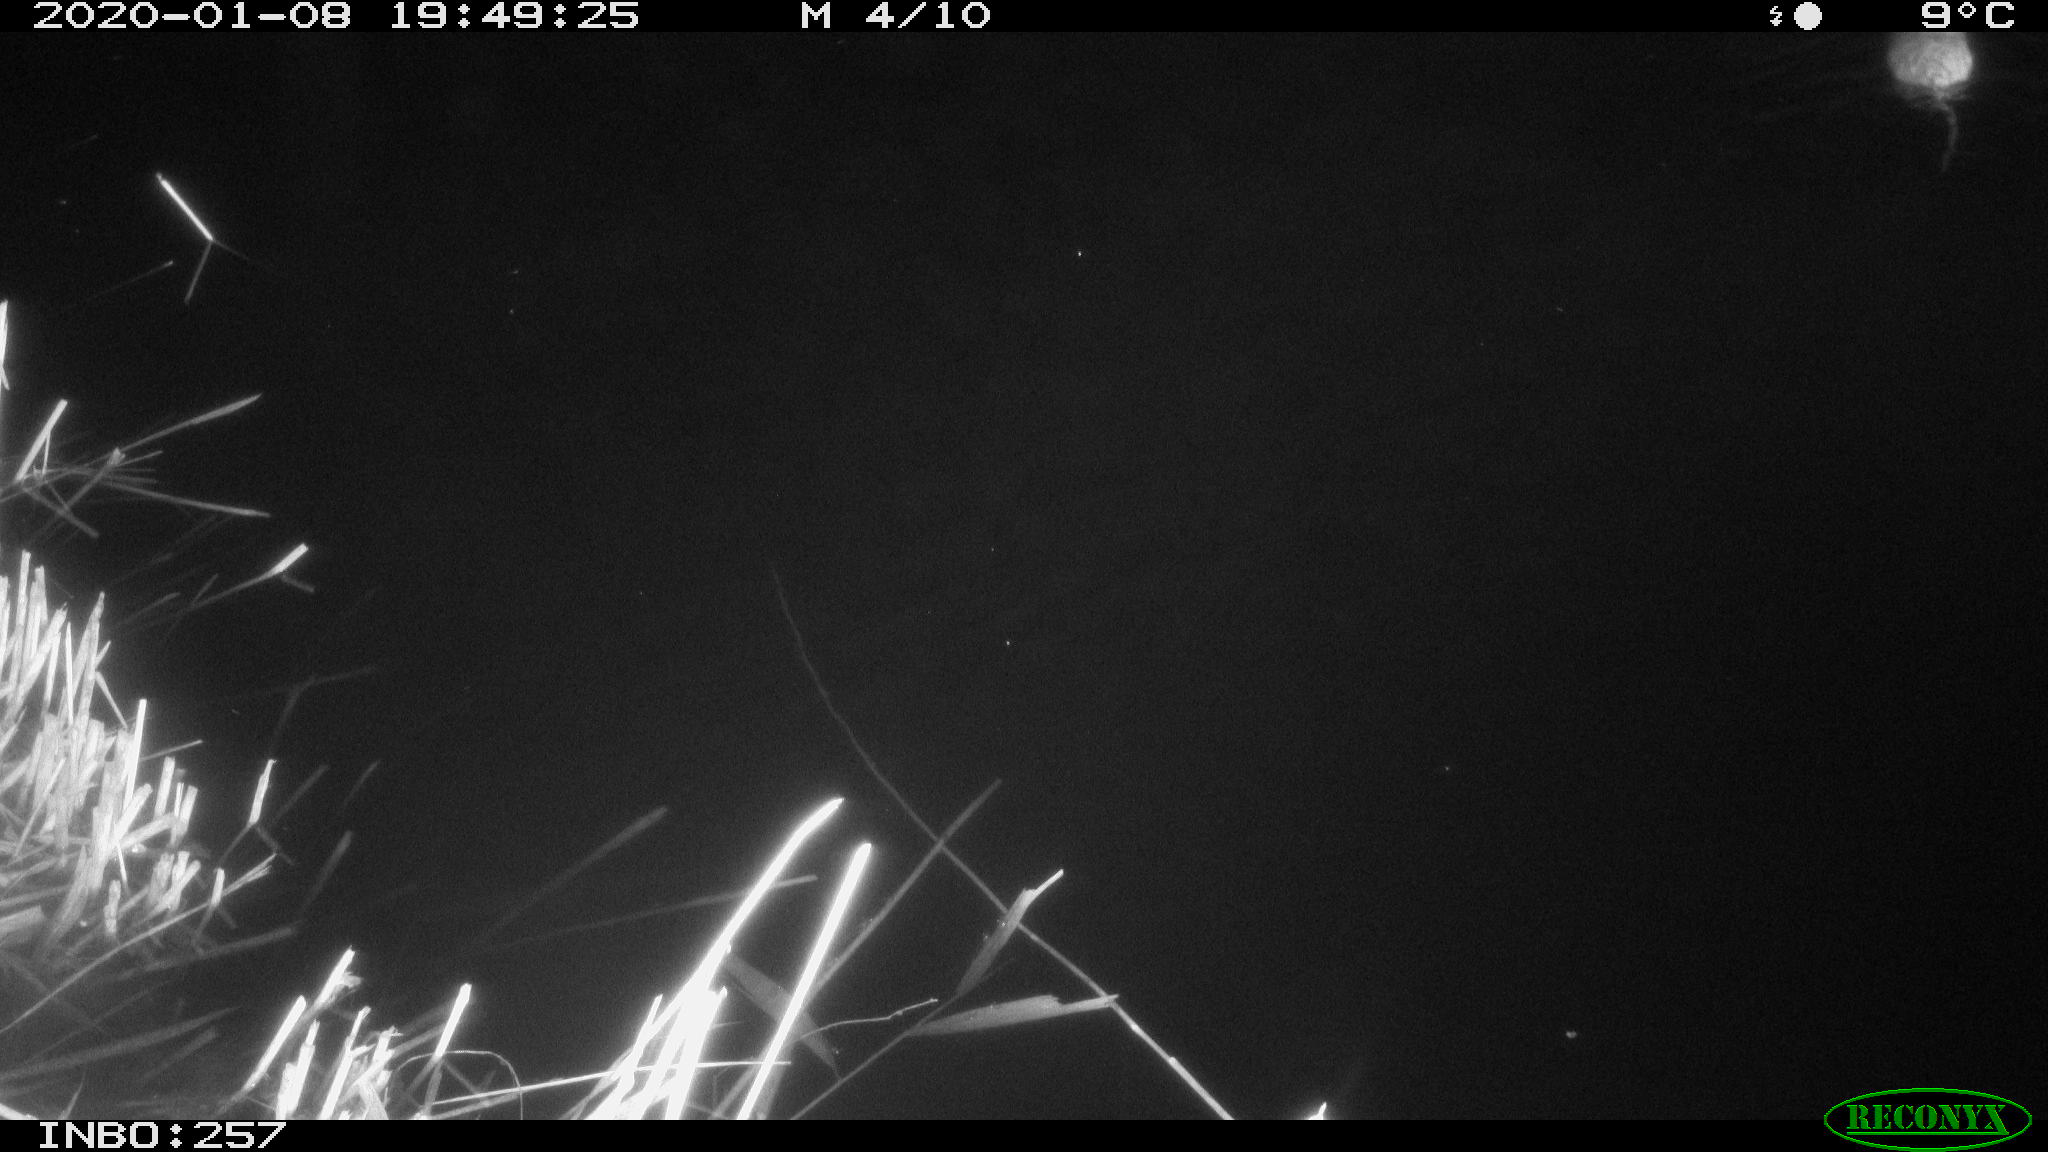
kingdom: Animalia
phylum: Chordata
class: Mammalia
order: Rodentia
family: Muridae
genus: Rattus
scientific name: Rattus norvegicus
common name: Brown rat
